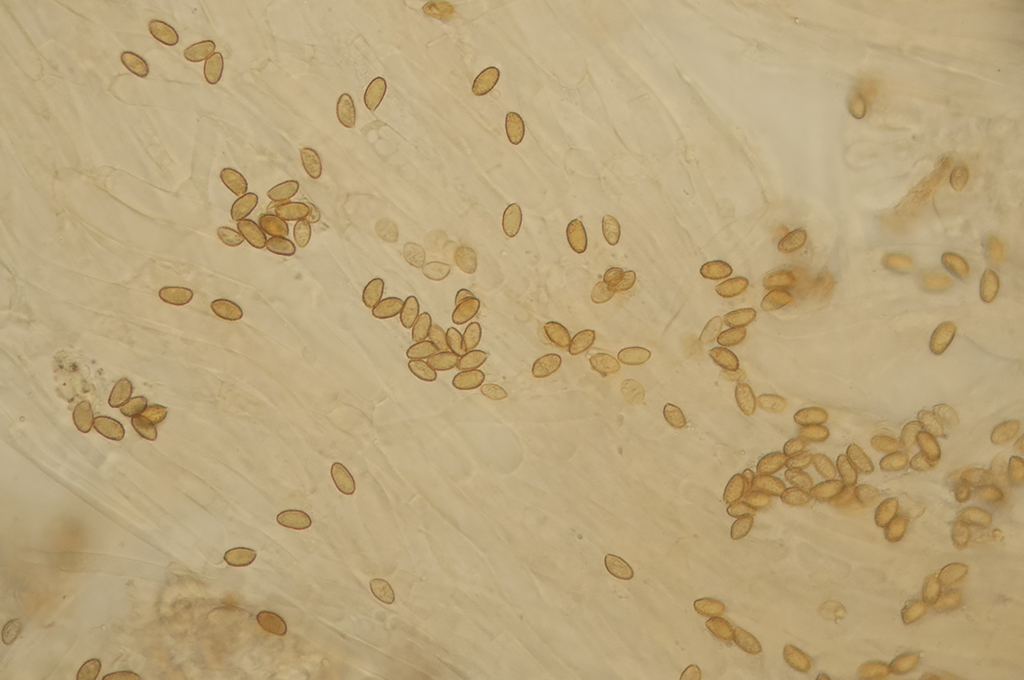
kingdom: Fungi
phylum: Basidiomycota
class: Agaricomycetes
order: Agaricales
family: Cortinariaceae
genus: Cortinarius
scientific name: Cortinarius saturninus
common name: brunviolet slørhat
